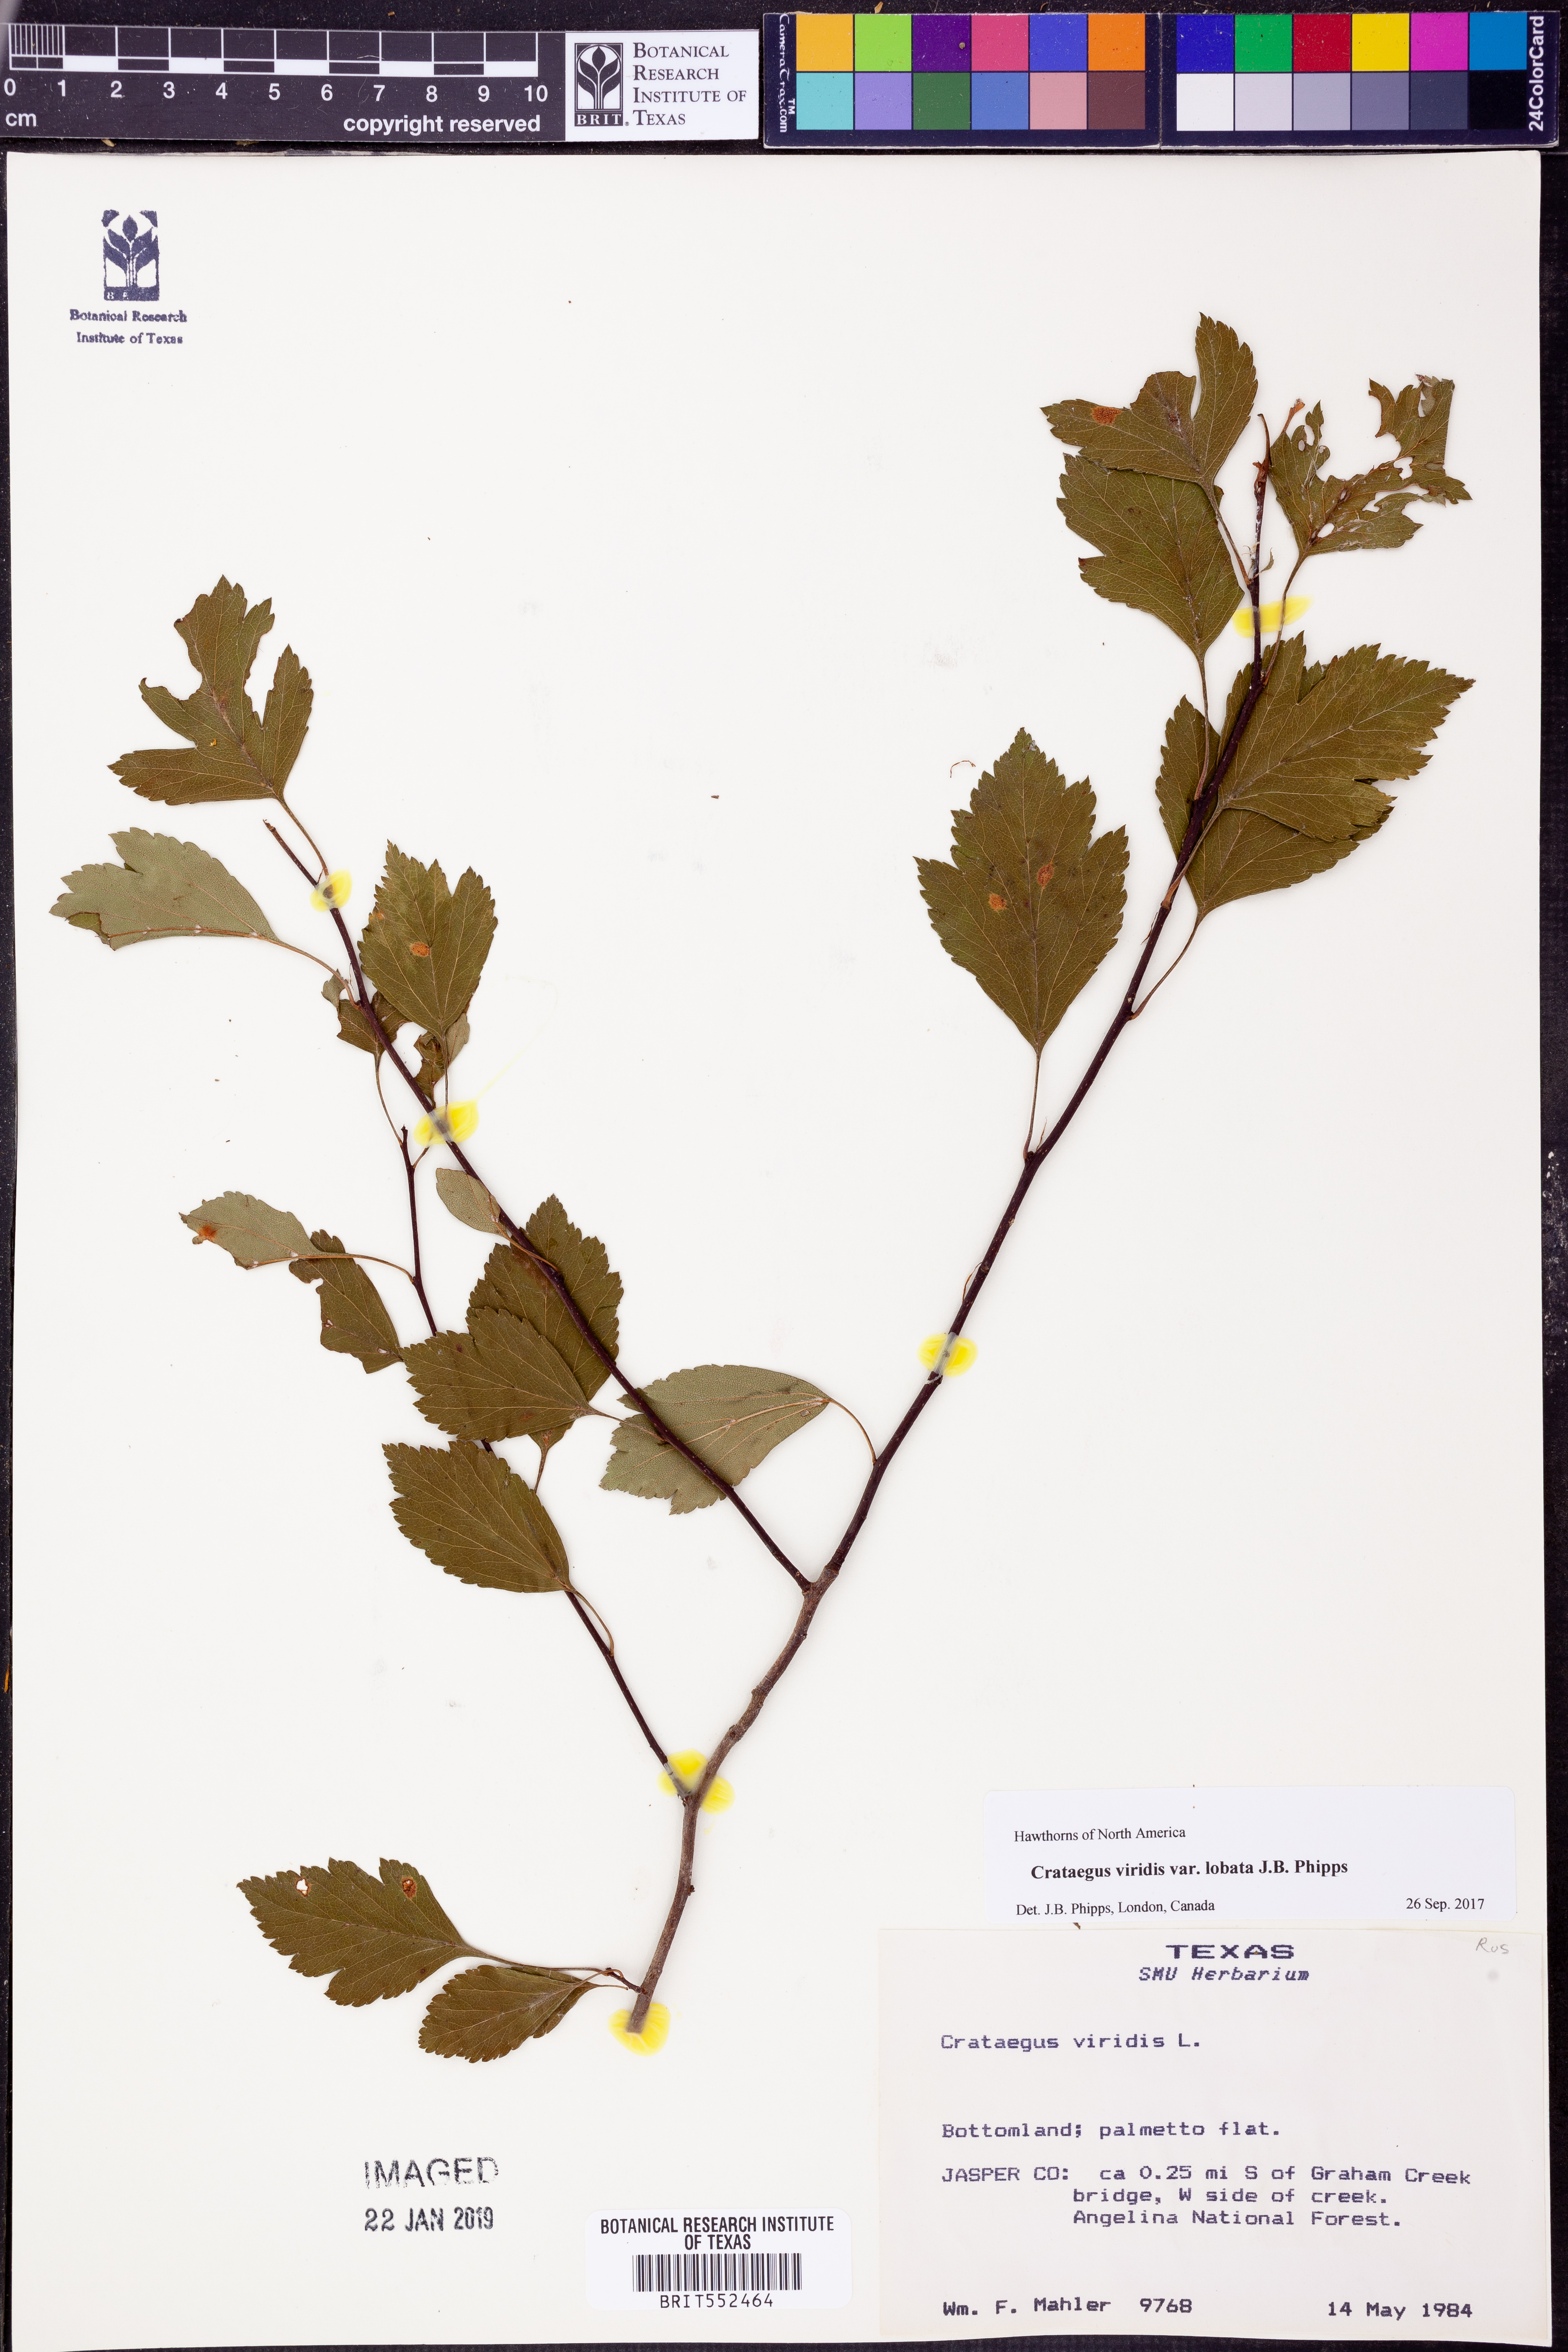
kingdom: Plantae
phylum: Tracheophyta
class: Magnoliopsida
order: Rosales
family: Rosaceae
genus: Crataegus
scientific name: Crataegus viridis
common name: Southernthorn
